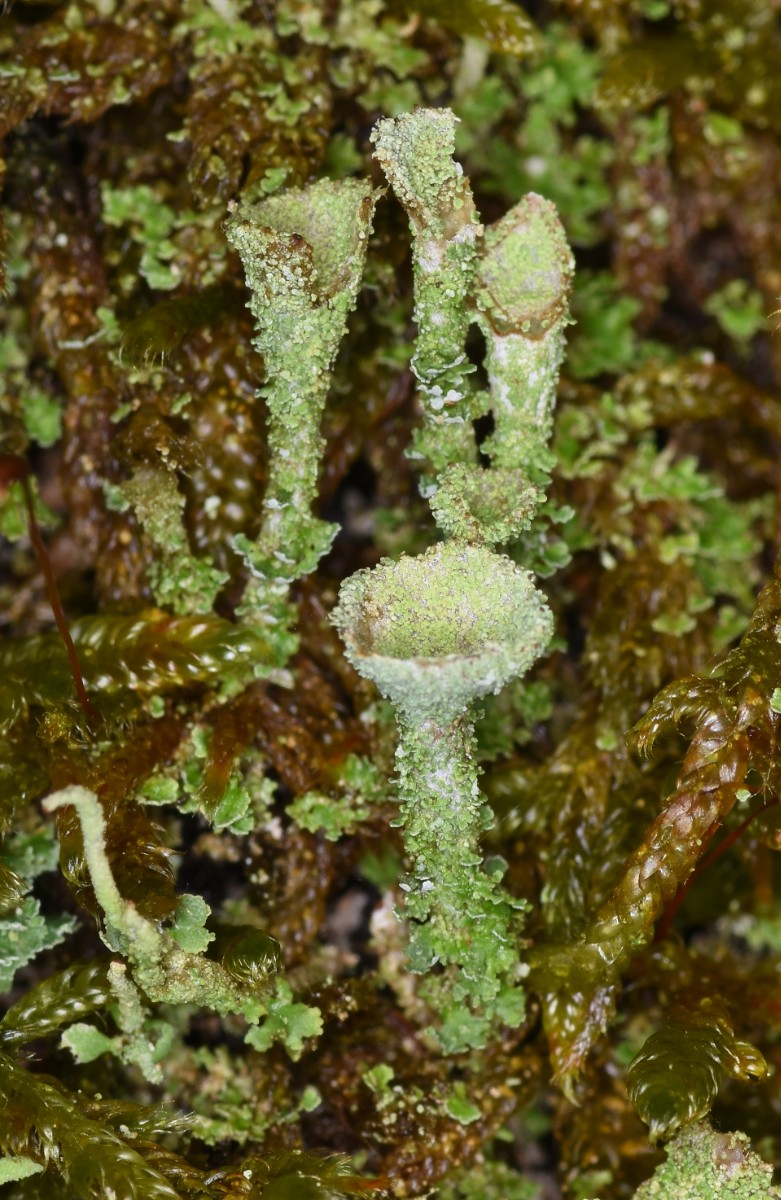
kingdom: Fungi
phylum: Ascomycota
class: Lecanoromycetes
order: Lecanorales
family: Cladoniaceae
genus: Cladonia
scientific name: Cladonia
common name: brungrøn bægerlav
